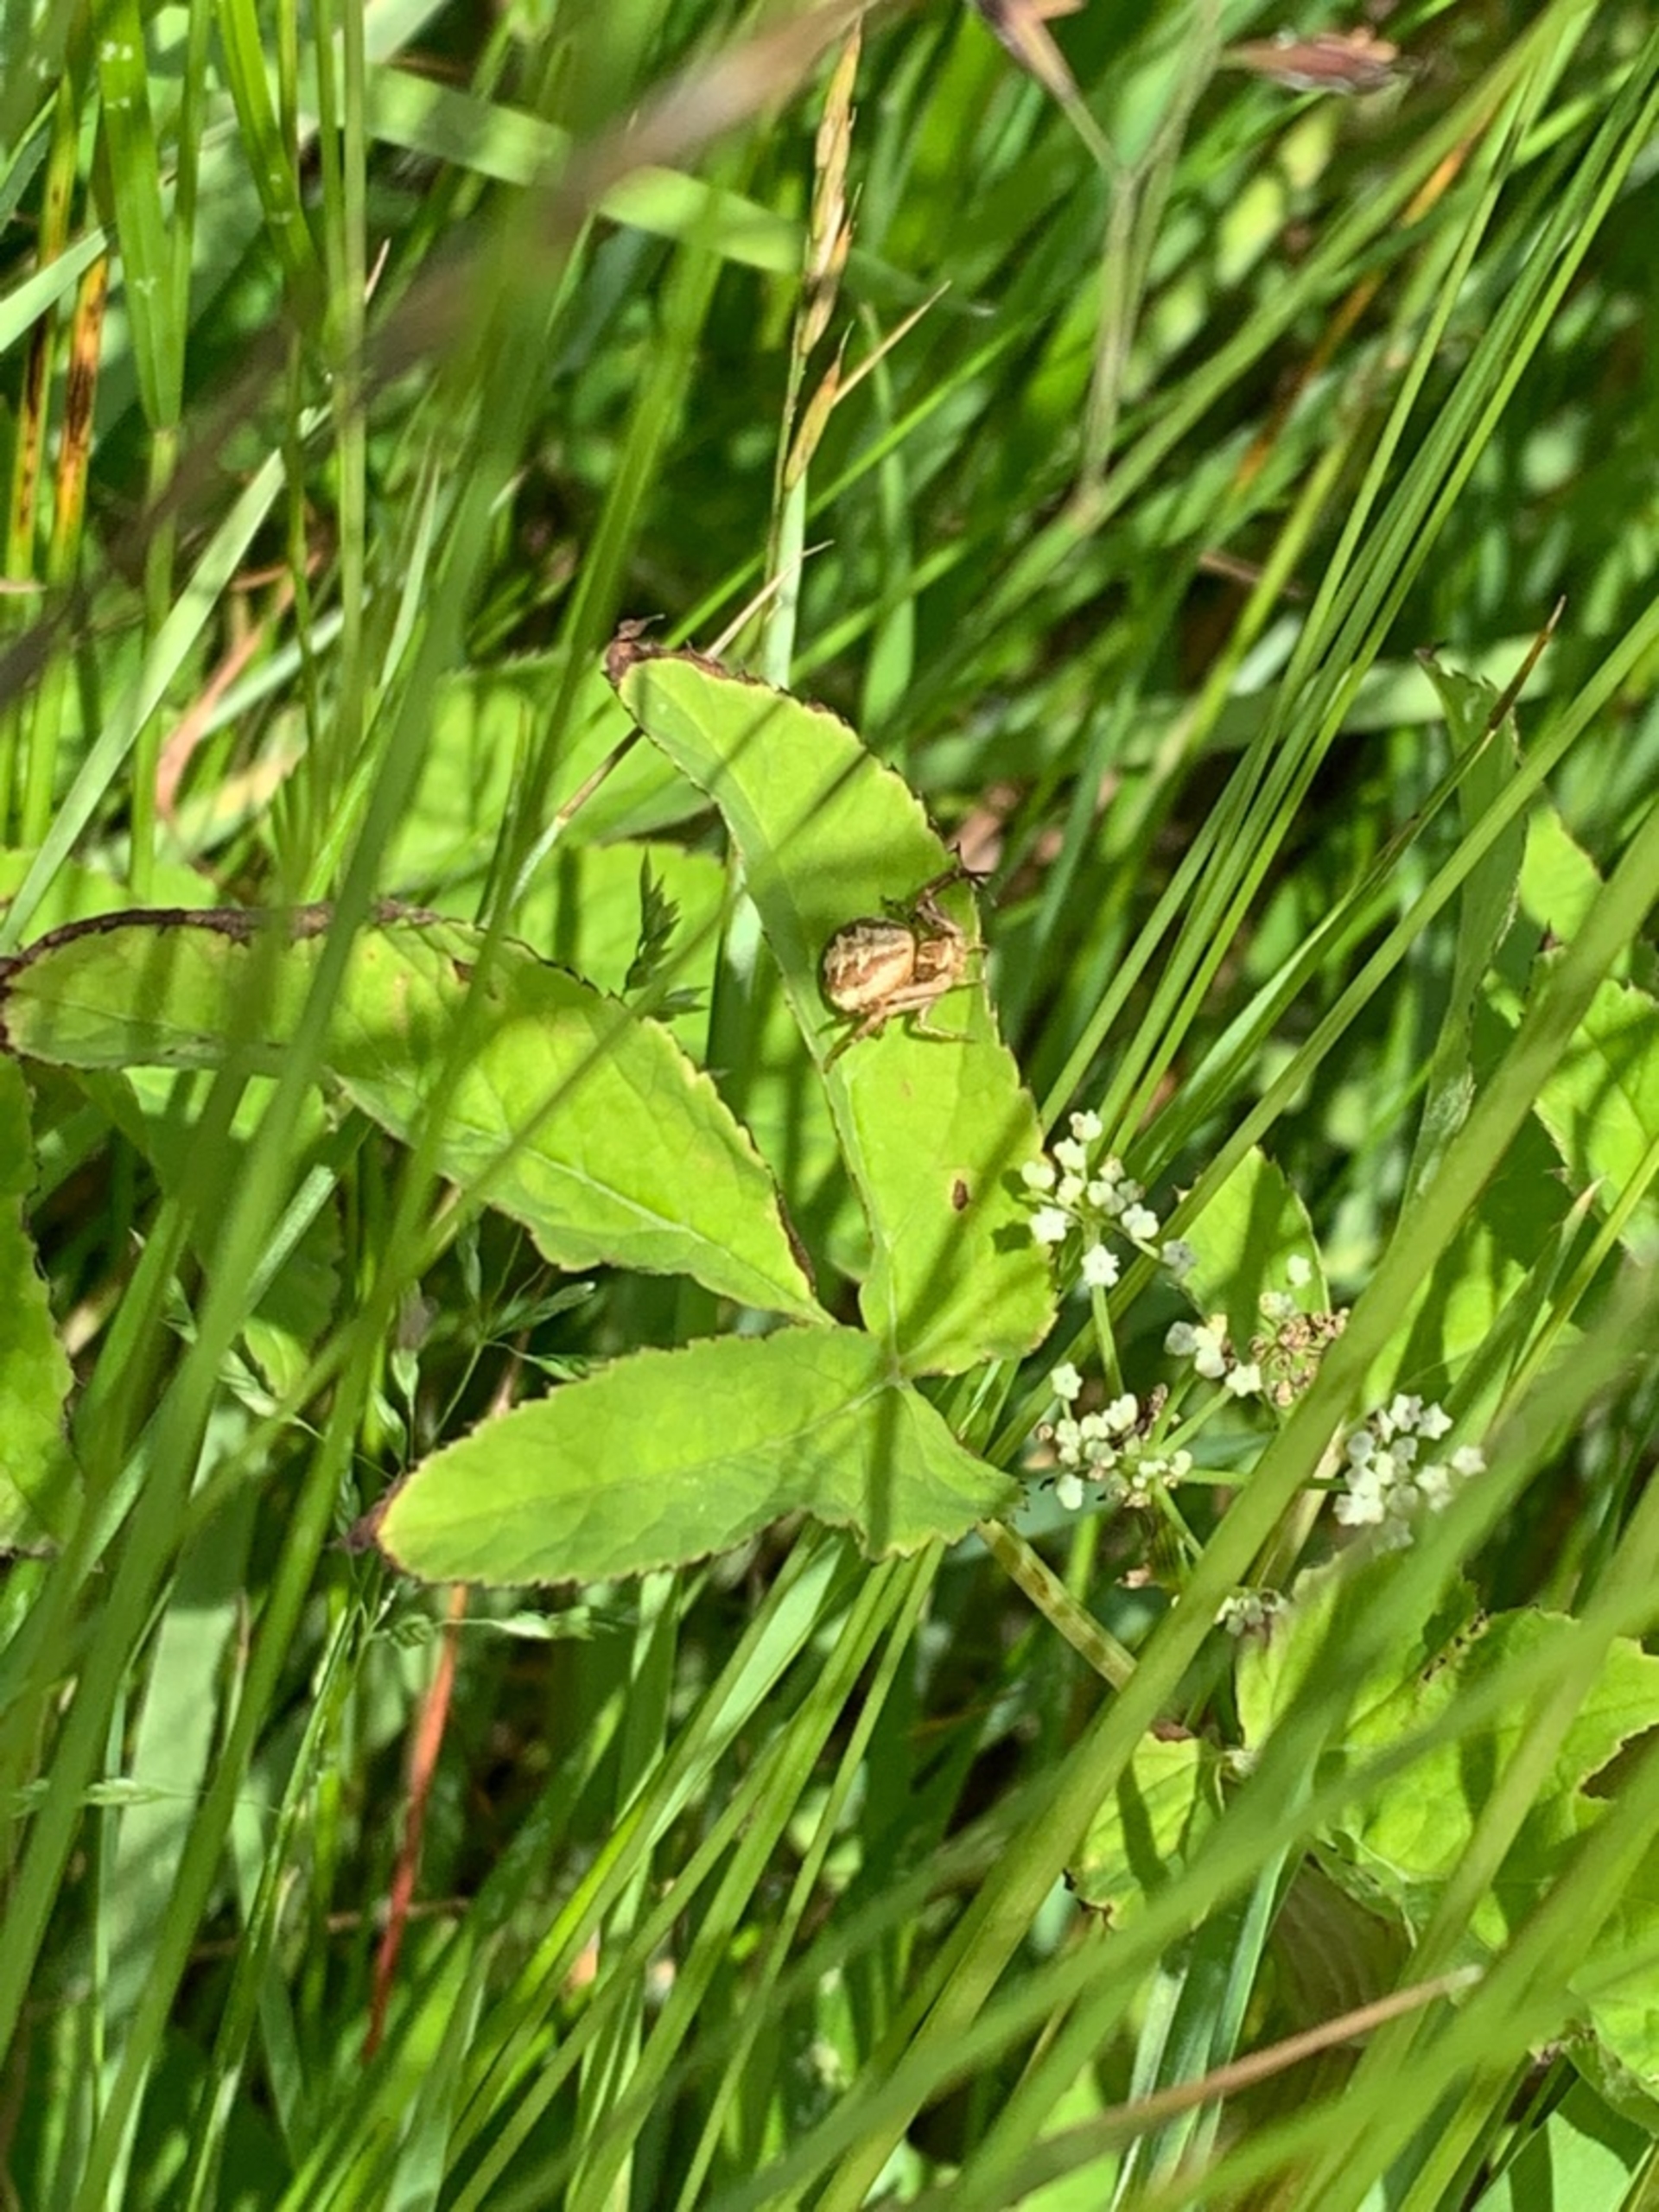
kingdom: Animalia
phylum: Arthropoda
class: Arachnida
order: Araneae
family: Thomisidae
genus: Xysticus
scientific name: Xysticus
